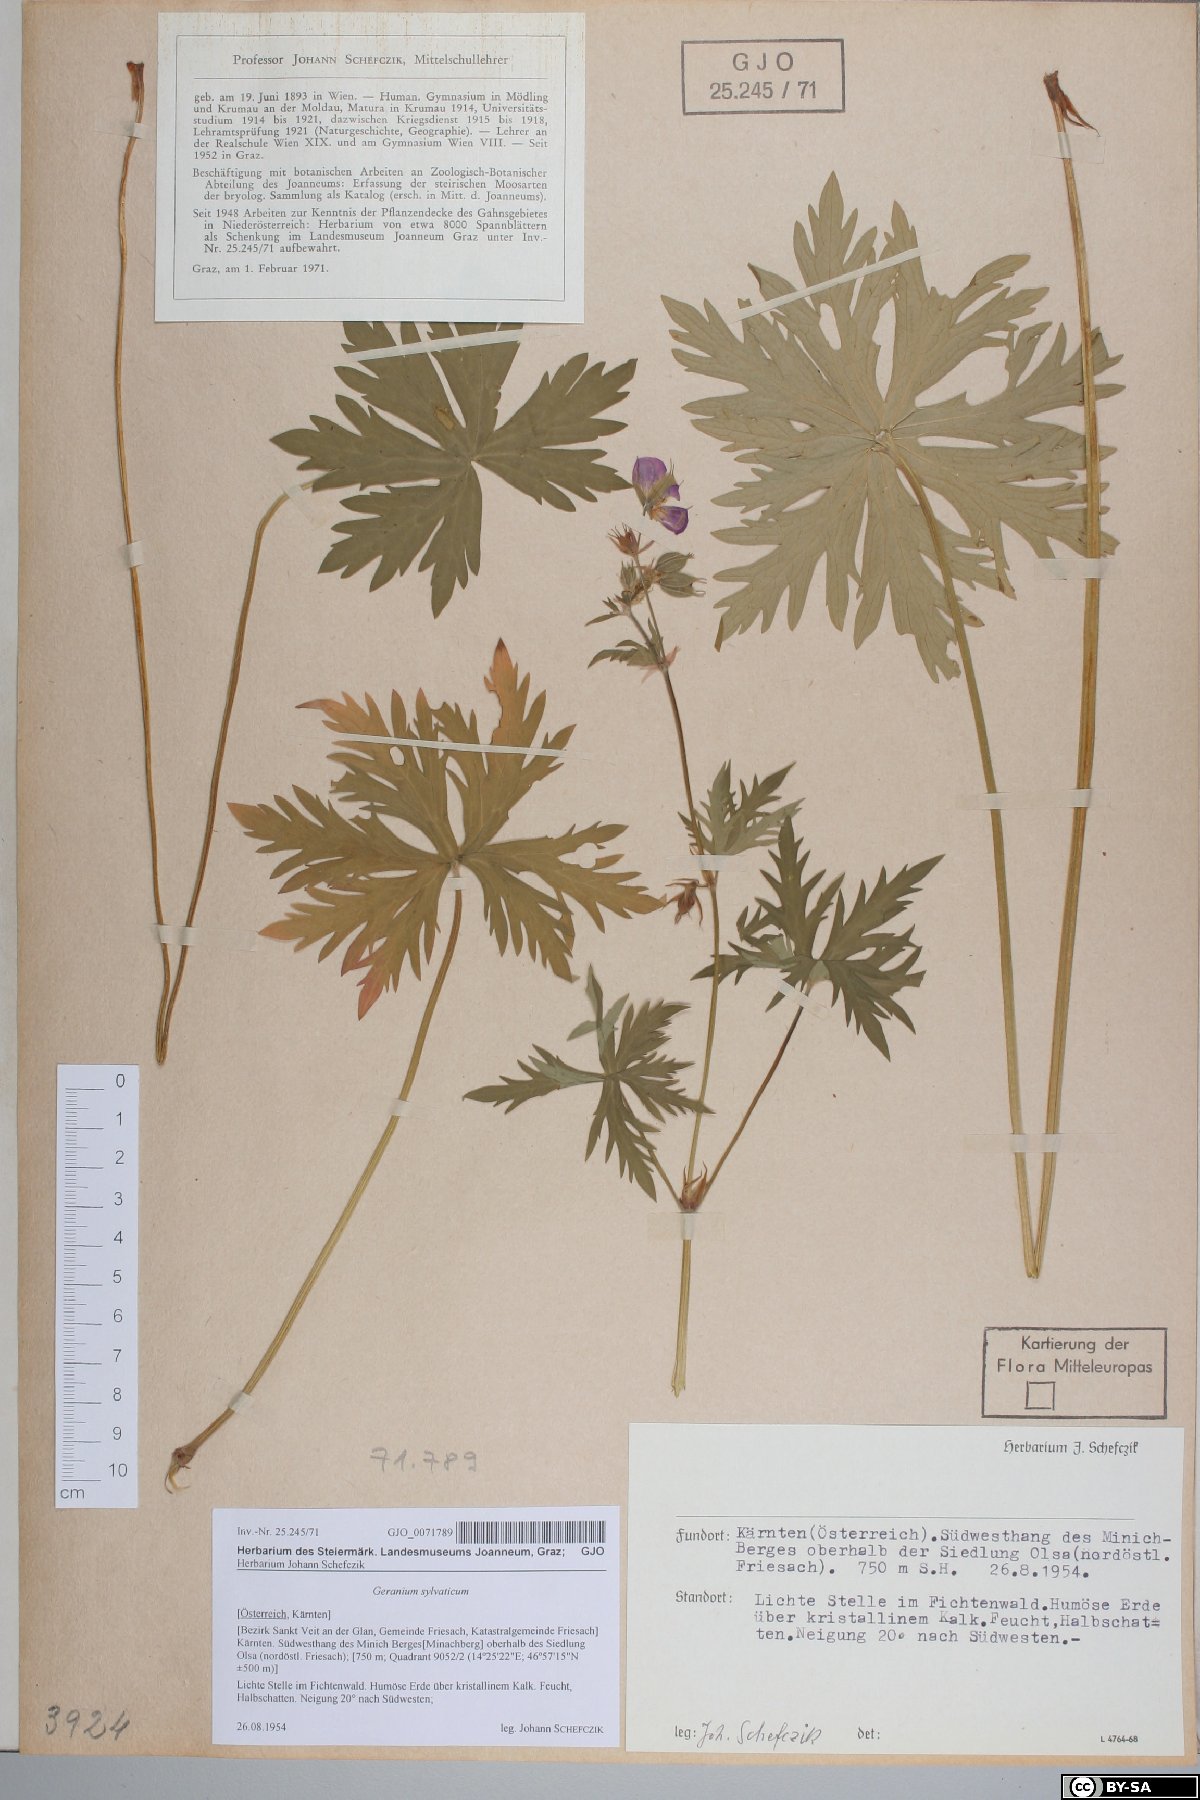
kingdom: Plantae
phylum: Tracheophyta
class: Magnoliopsida
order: Geraniales
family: Geraniaceae
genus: Geranium
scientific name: Geranium sylvaticum
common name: Wood crane's-bill
